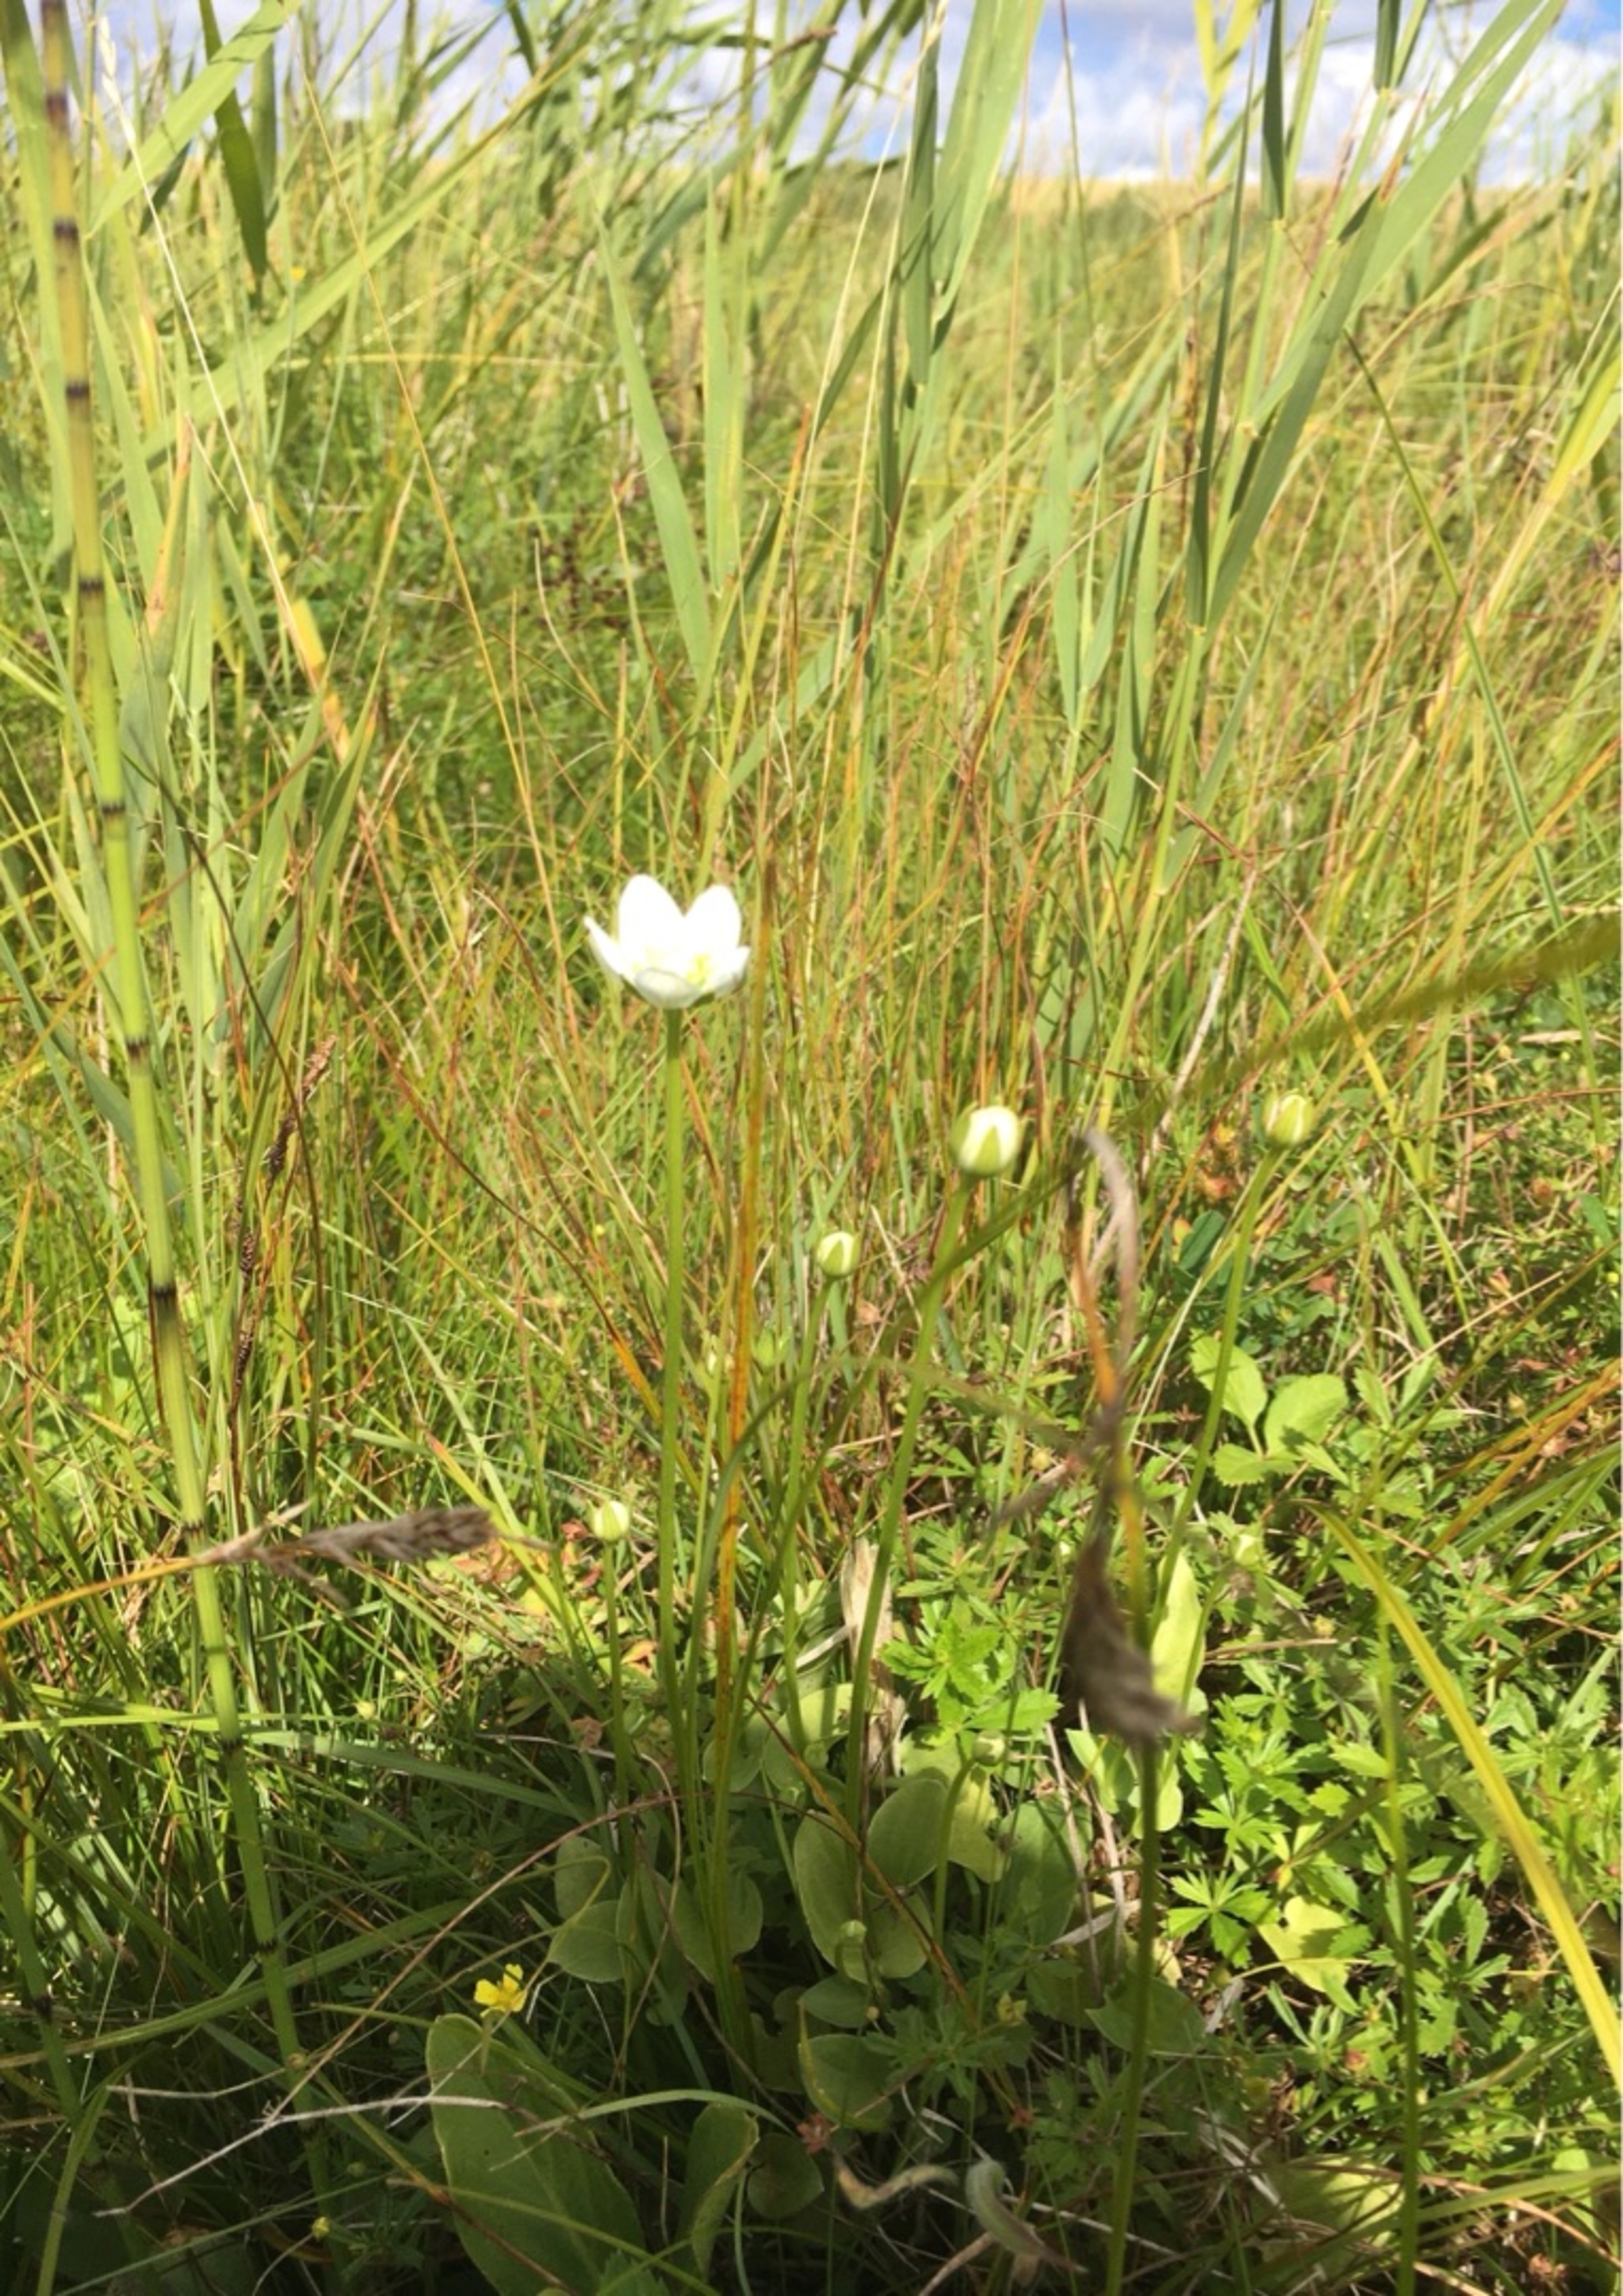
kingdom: Plantae
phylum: Tracheophyta
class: Magnoliopsida
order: Celastrales
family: Parnassiaceae
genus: Parnassia
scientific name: Parnassia palustris
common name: Leverurt
